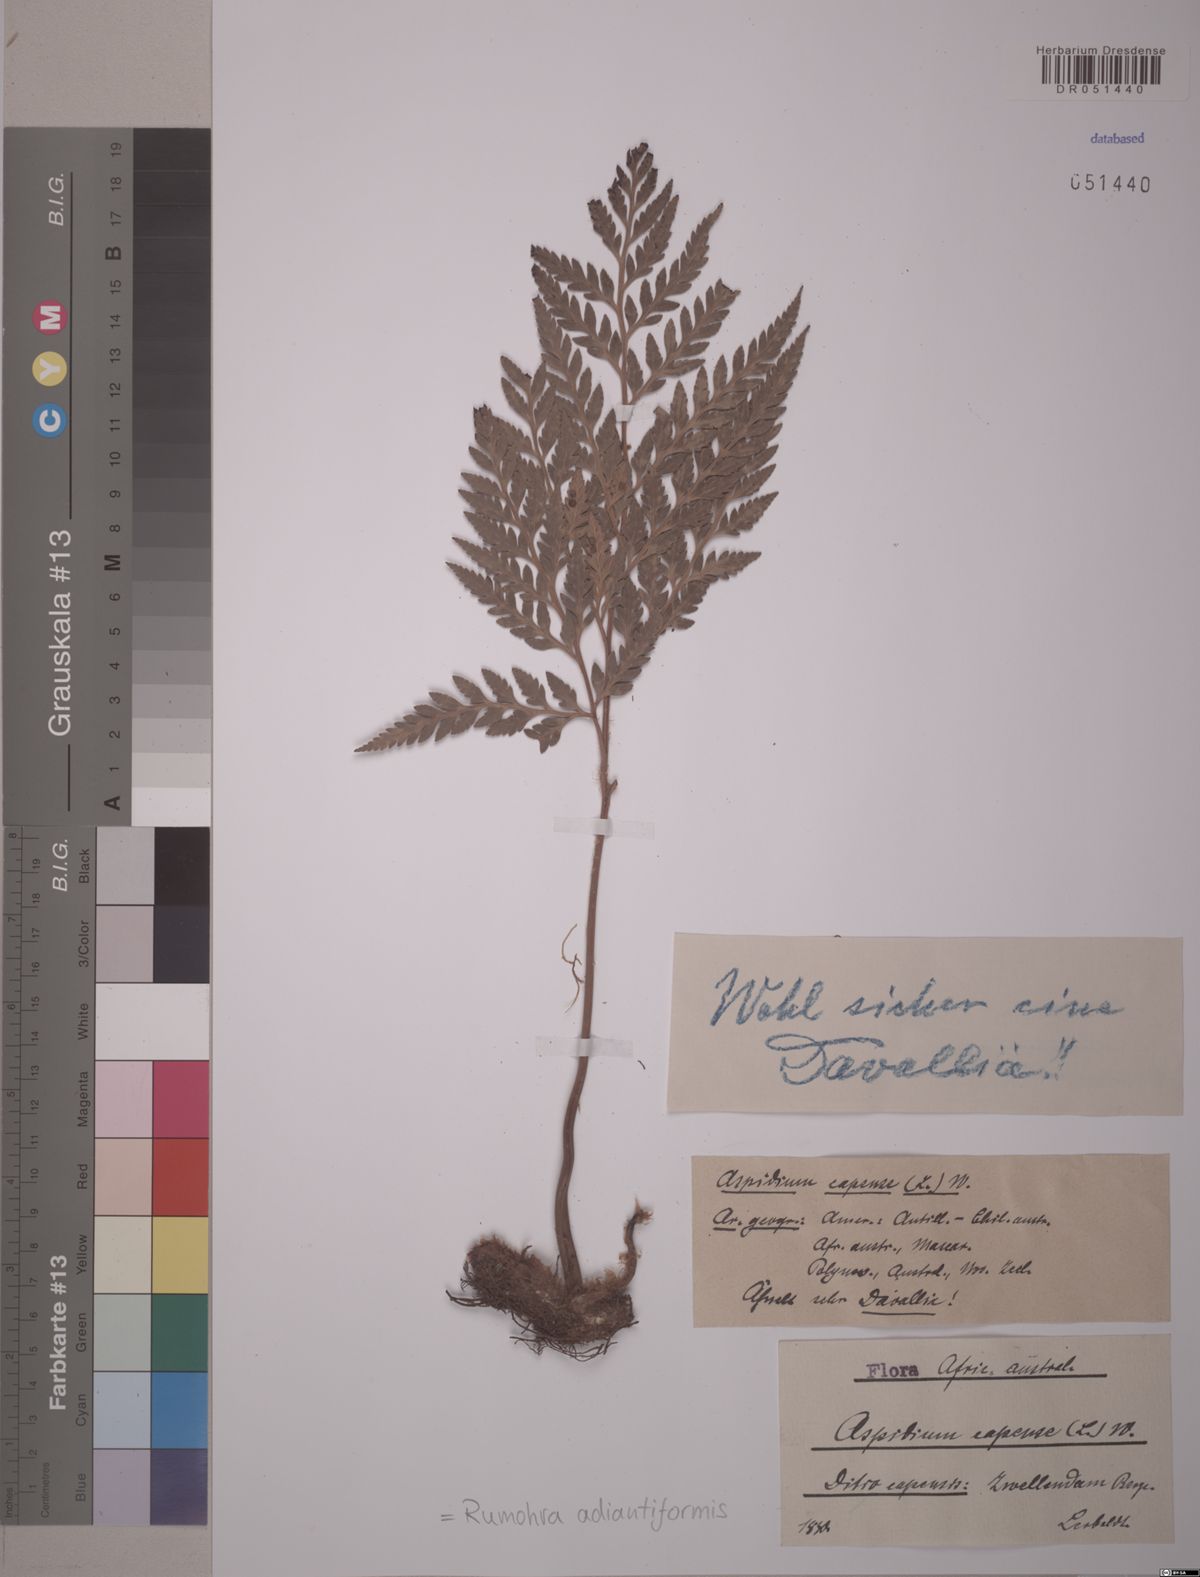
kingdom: Plantae
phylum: Tracheophyta
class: Polypodiopsida
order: Polypodiales
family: Dryopteridaceae
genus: Rumohra
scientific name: Rumohra adiantiformis
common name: Leather fern
